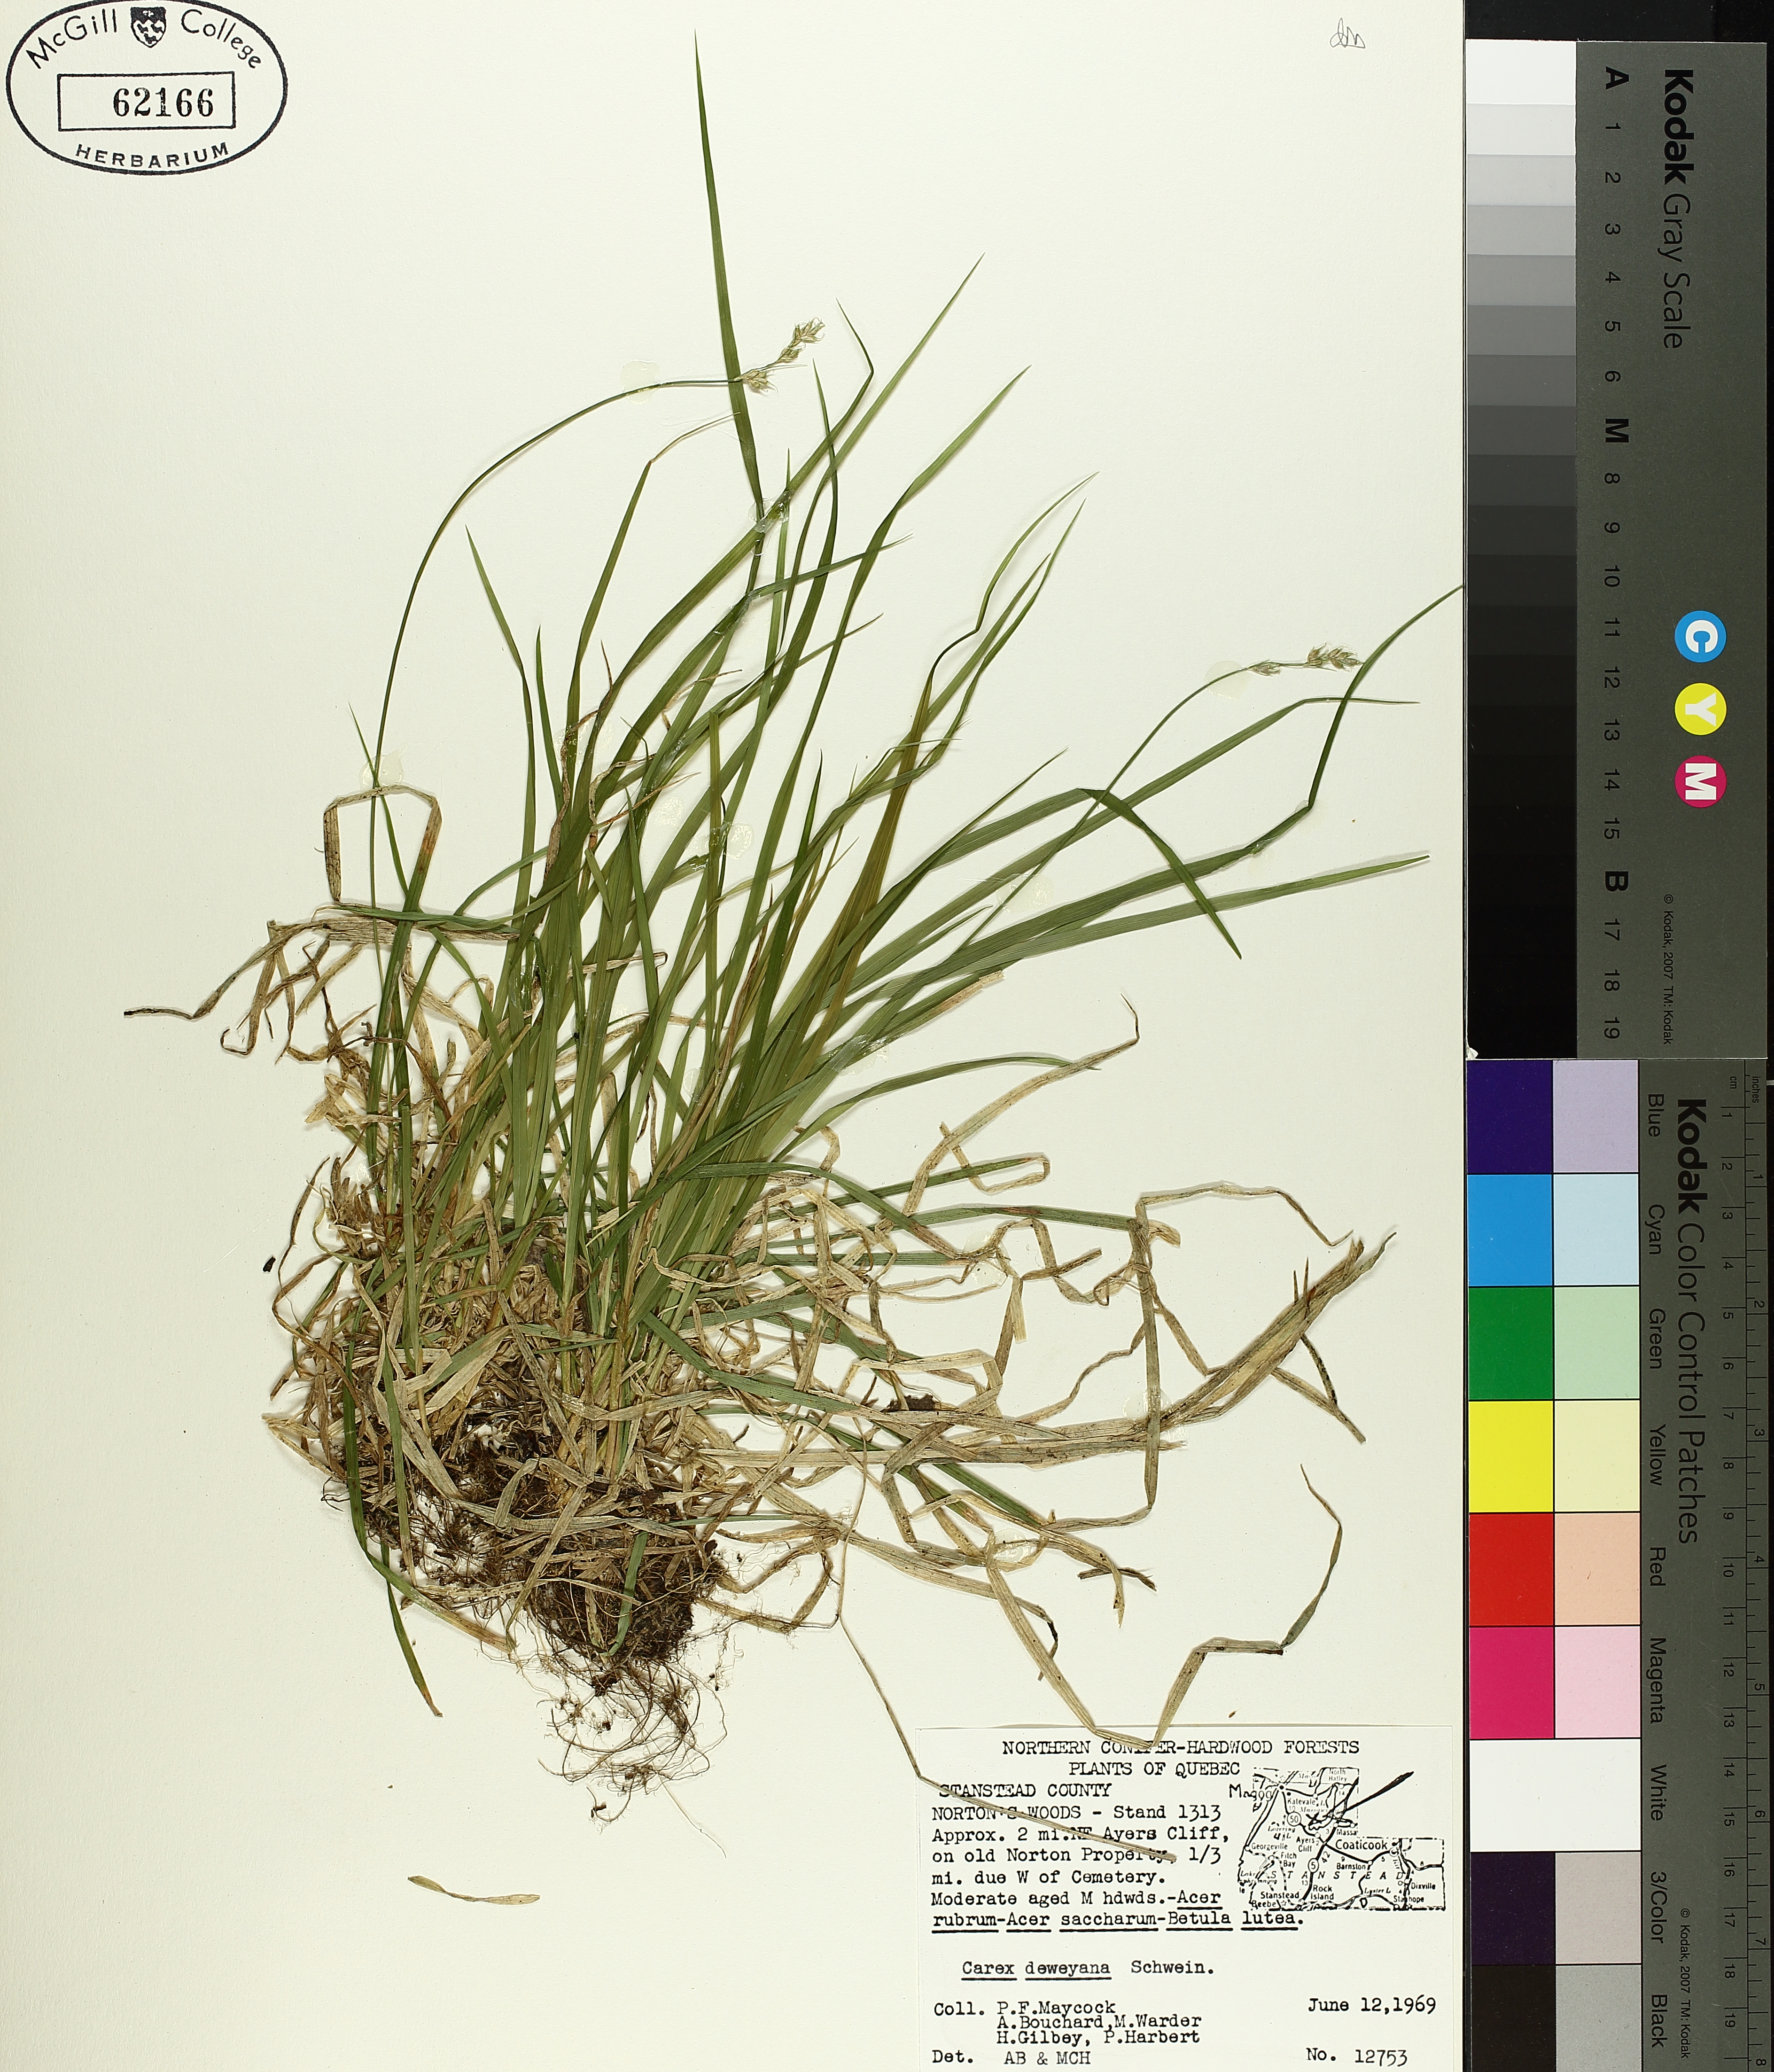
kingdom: Plantae
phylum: Tracheophyta
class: Liliopsida
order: Poales
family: Cyperaceae
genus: Carex
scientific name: Carex deweyana
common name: Dewey's sedge
